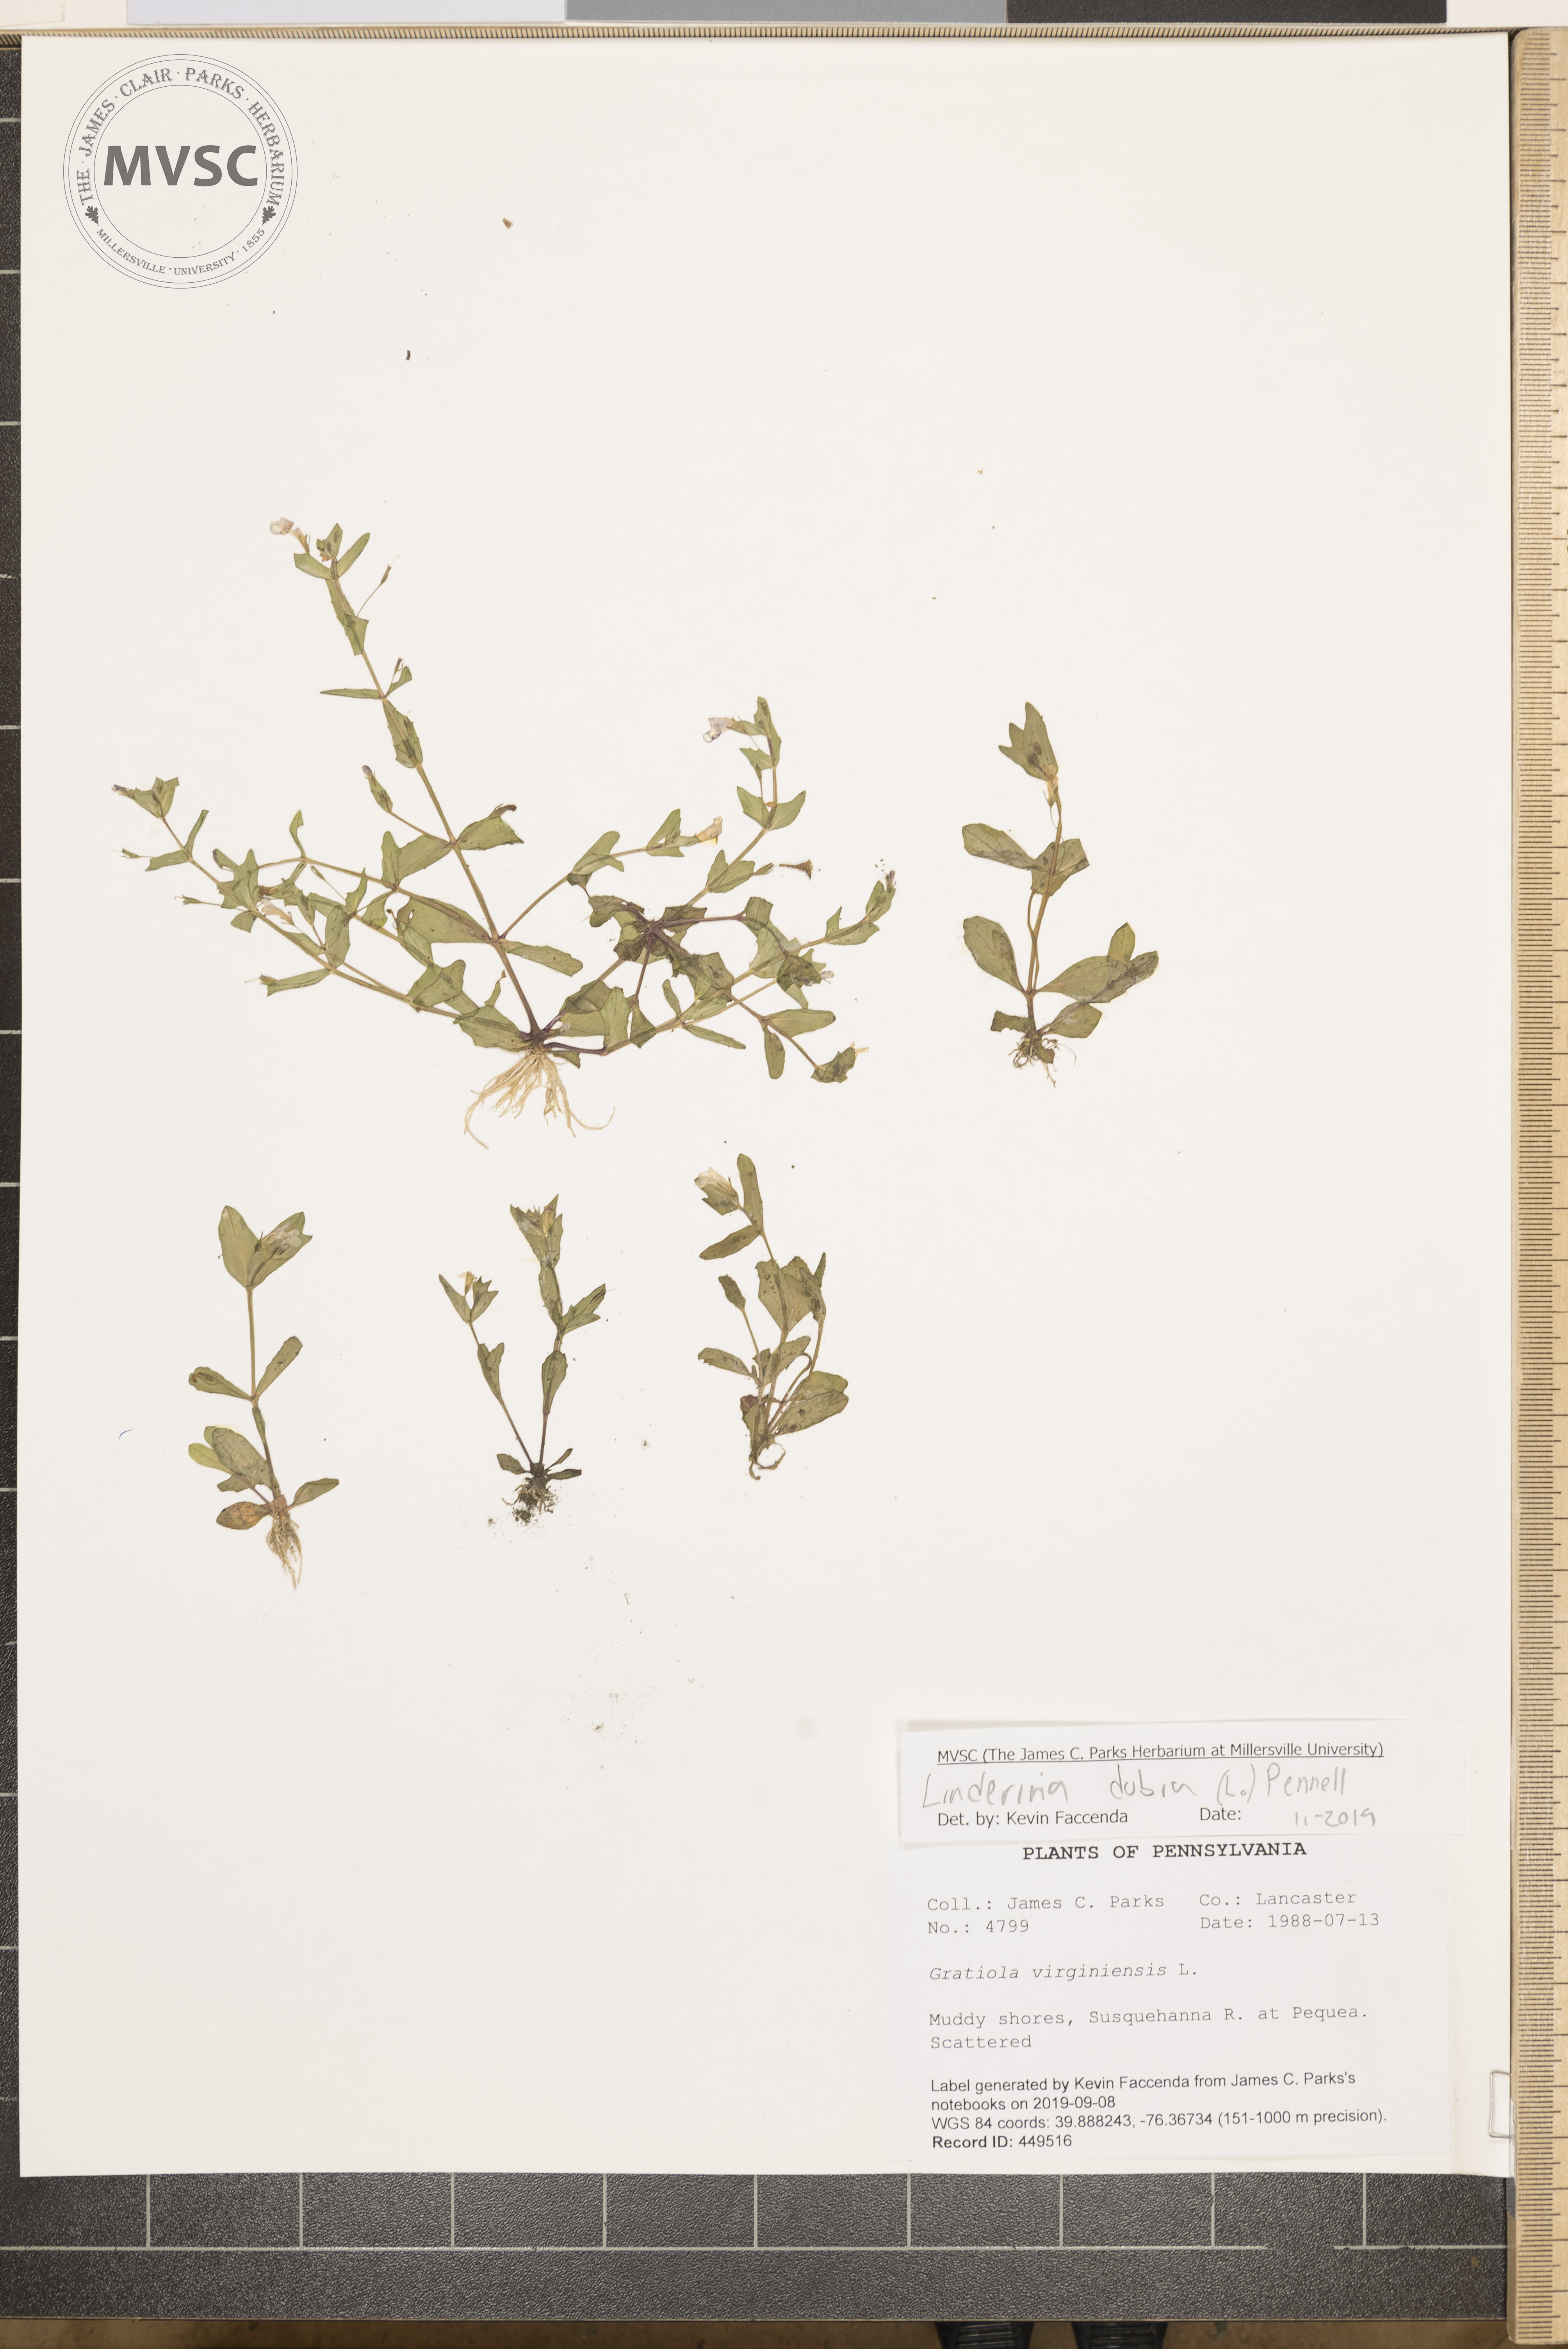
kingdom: Plantae
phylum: Tracheophyta
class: Magnoliopsida
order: Lamiales
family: Linderniaceae
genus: Lindernia
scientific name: Lindernia dubia
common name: Annual false pimpernel
